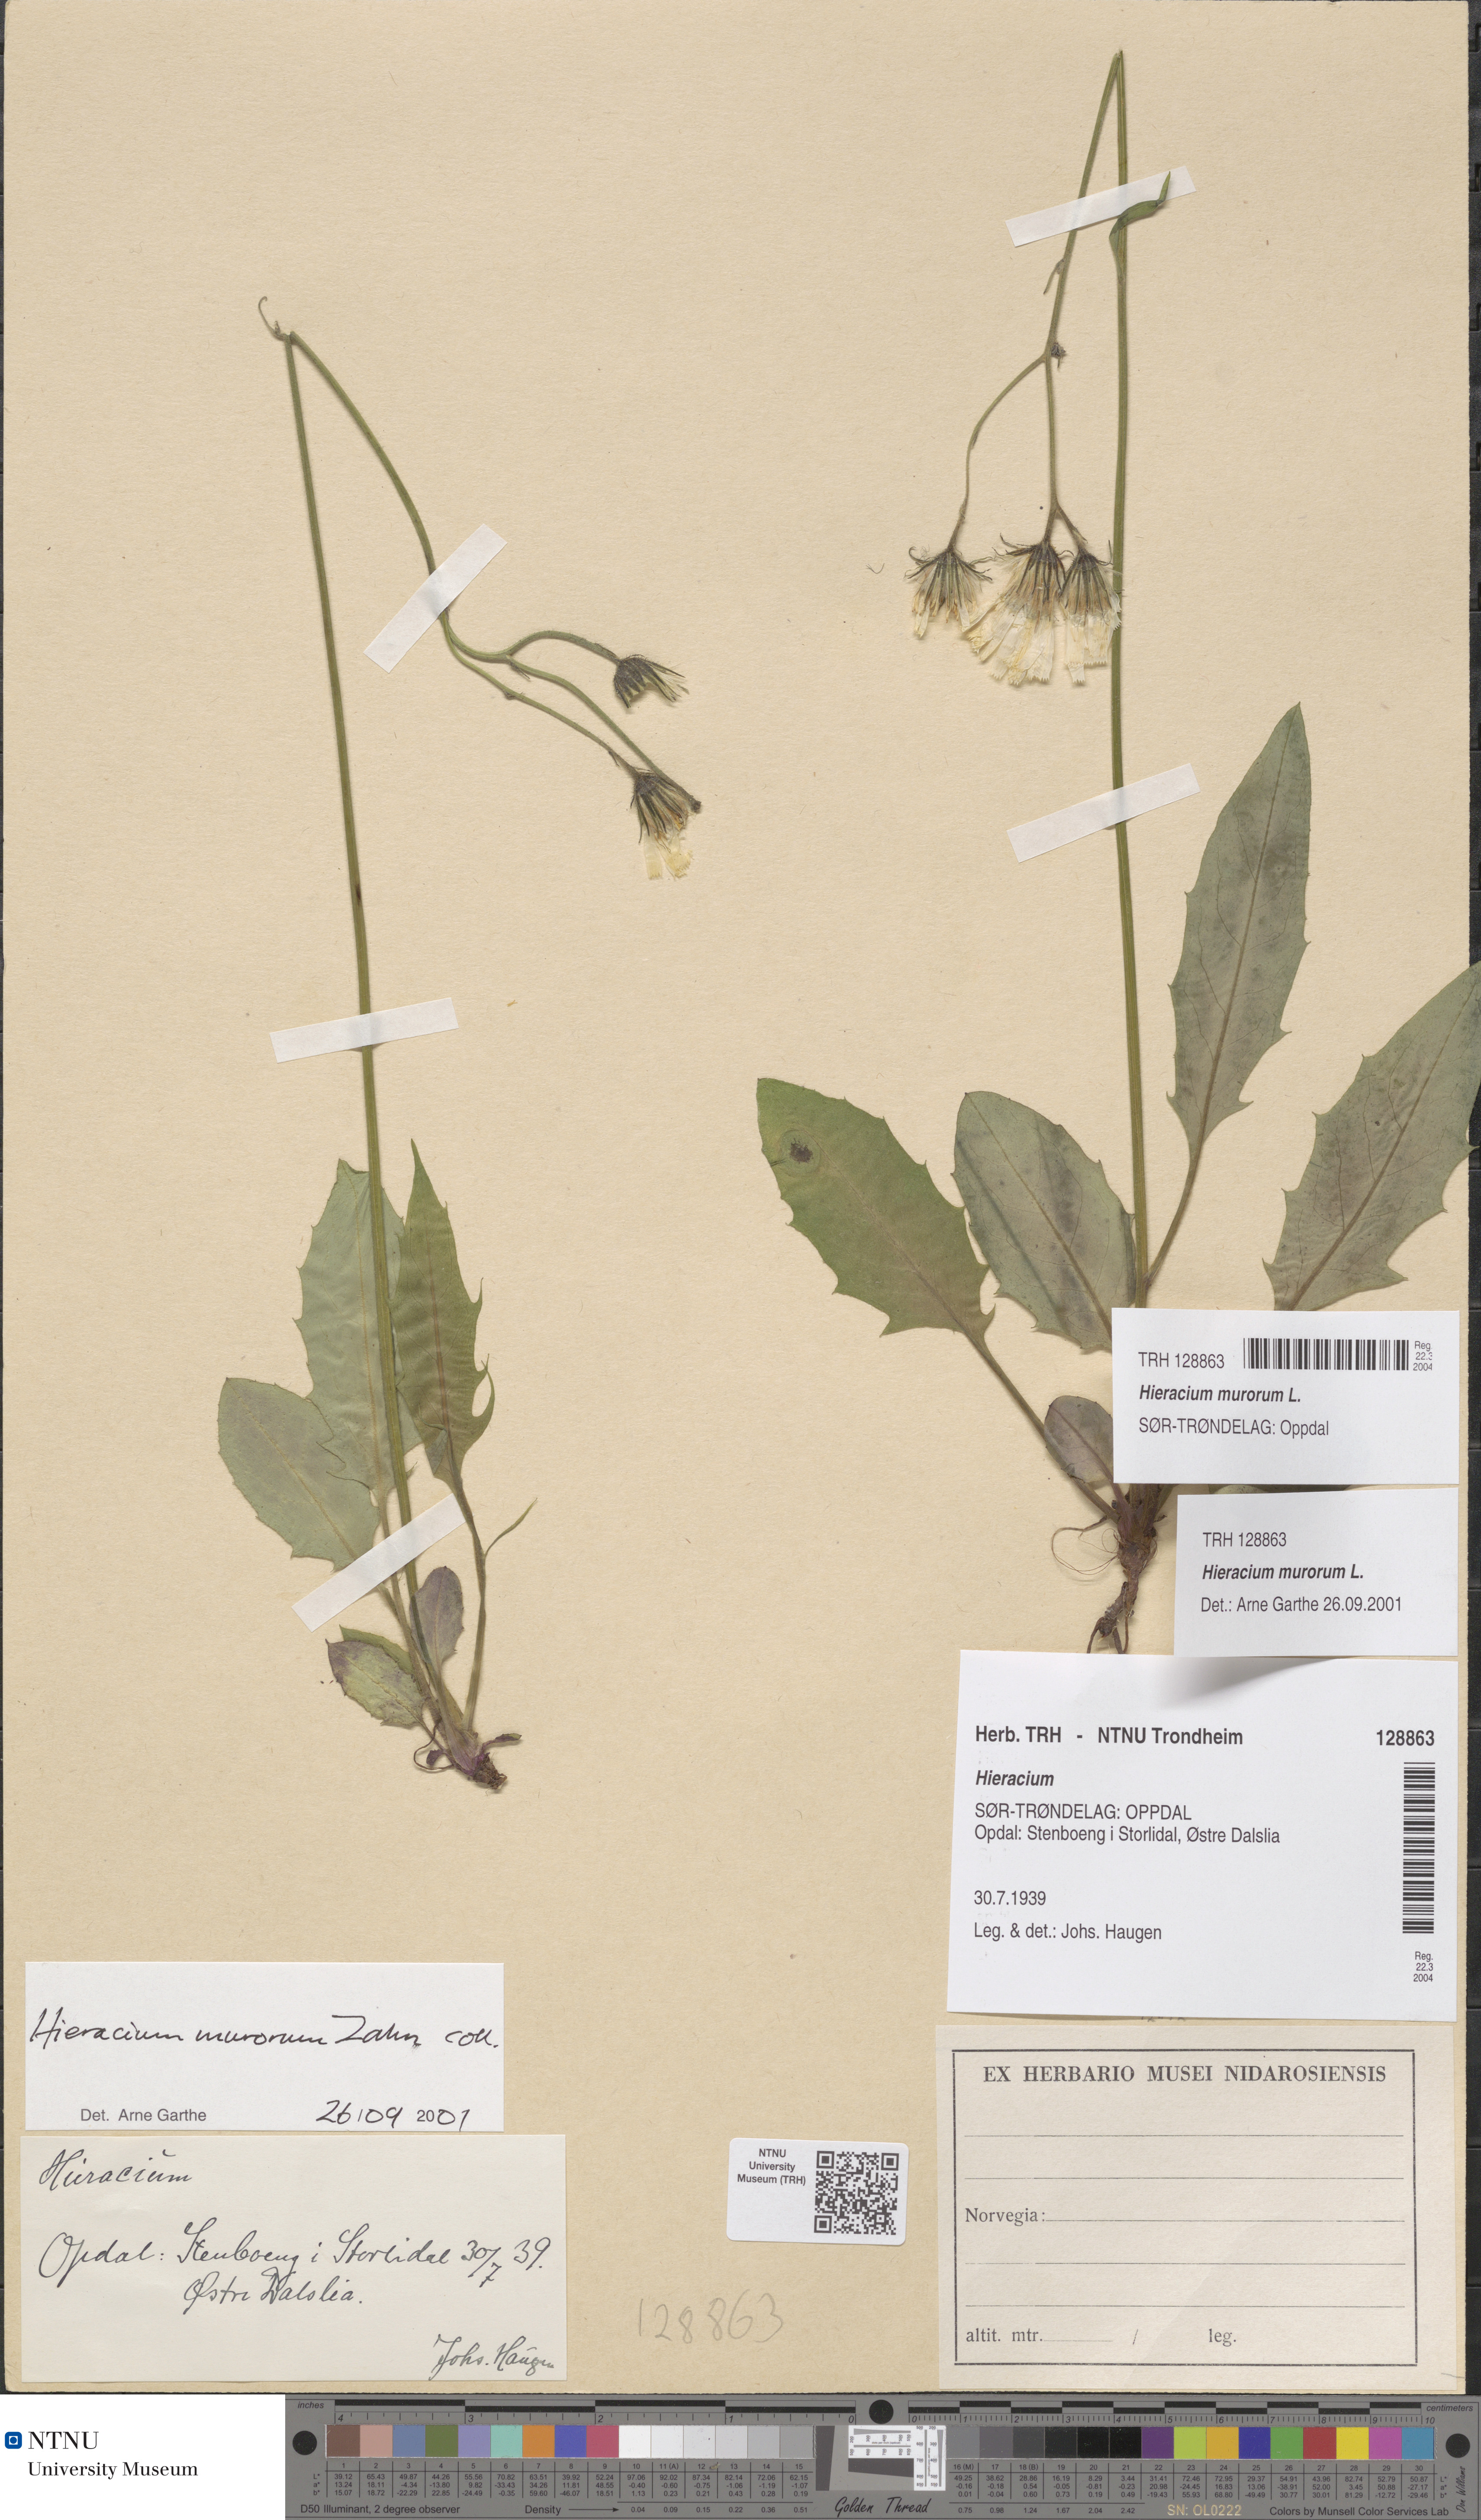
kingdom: Plantae
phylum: Tracheophyta
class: Magnoliopsida
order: Asterales
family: Asteraceae
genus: Hieracium
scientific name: Hieracium murorum
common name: Wall hawkweed
